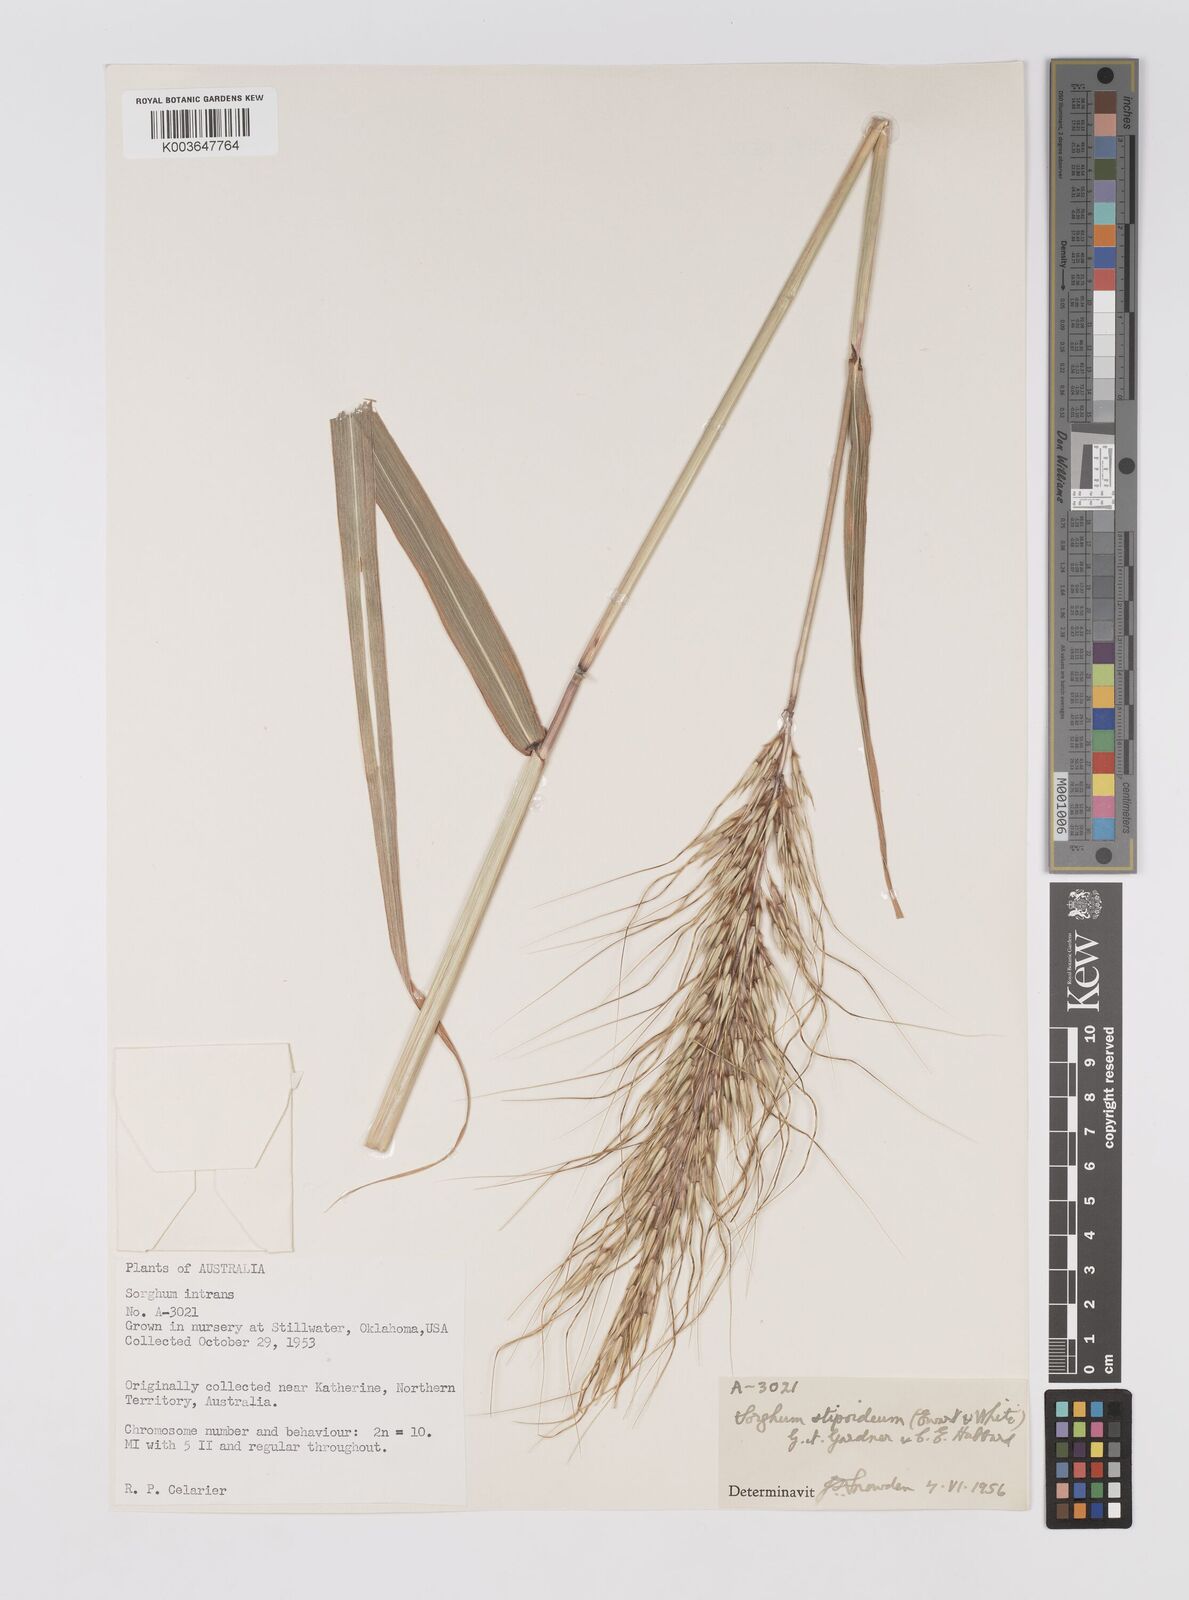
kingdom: Plantae
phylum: Tracheophyta
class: Liliopsida
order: Poales
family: Poaceae
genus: Sarga
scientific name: Sarga stipoidea
